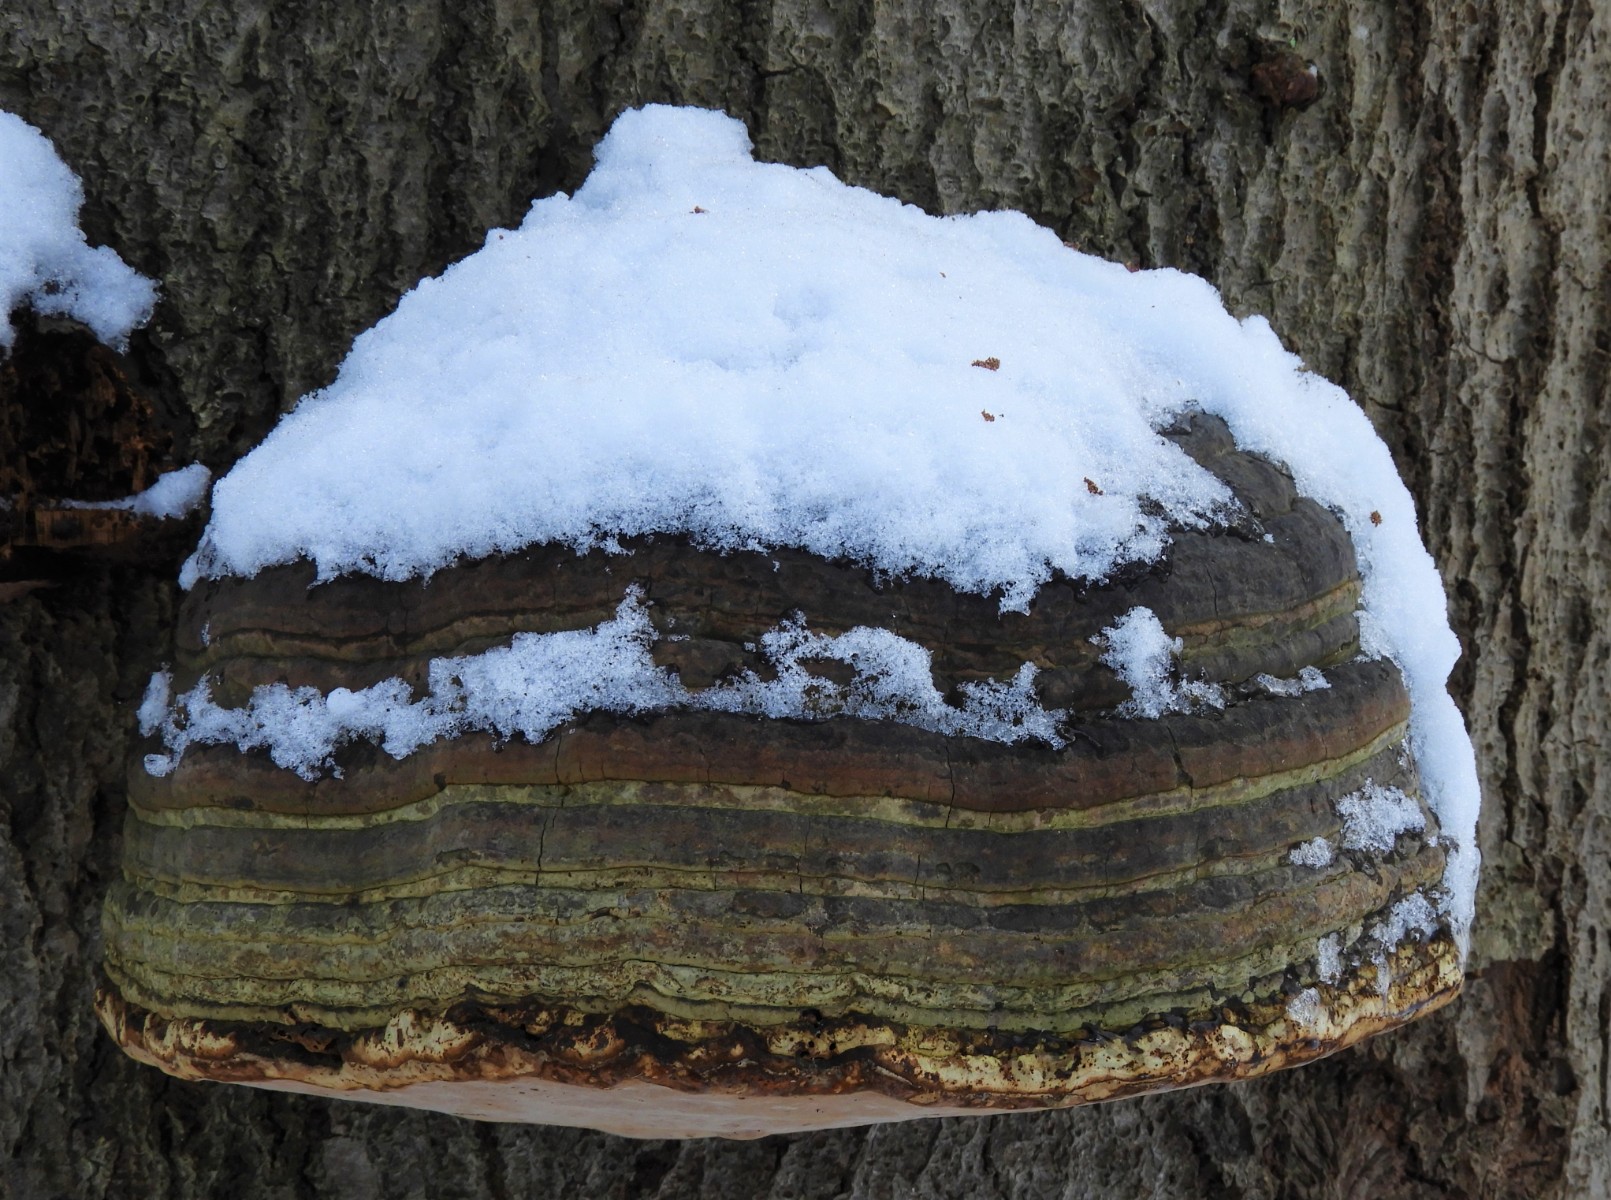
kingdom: Fungi
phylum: Basidiomycota
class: Agaricomycetes
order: Polyporales
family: Polyporaceae
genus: Fomes
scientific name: Fomes fomentarius
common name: tøndersvamp
